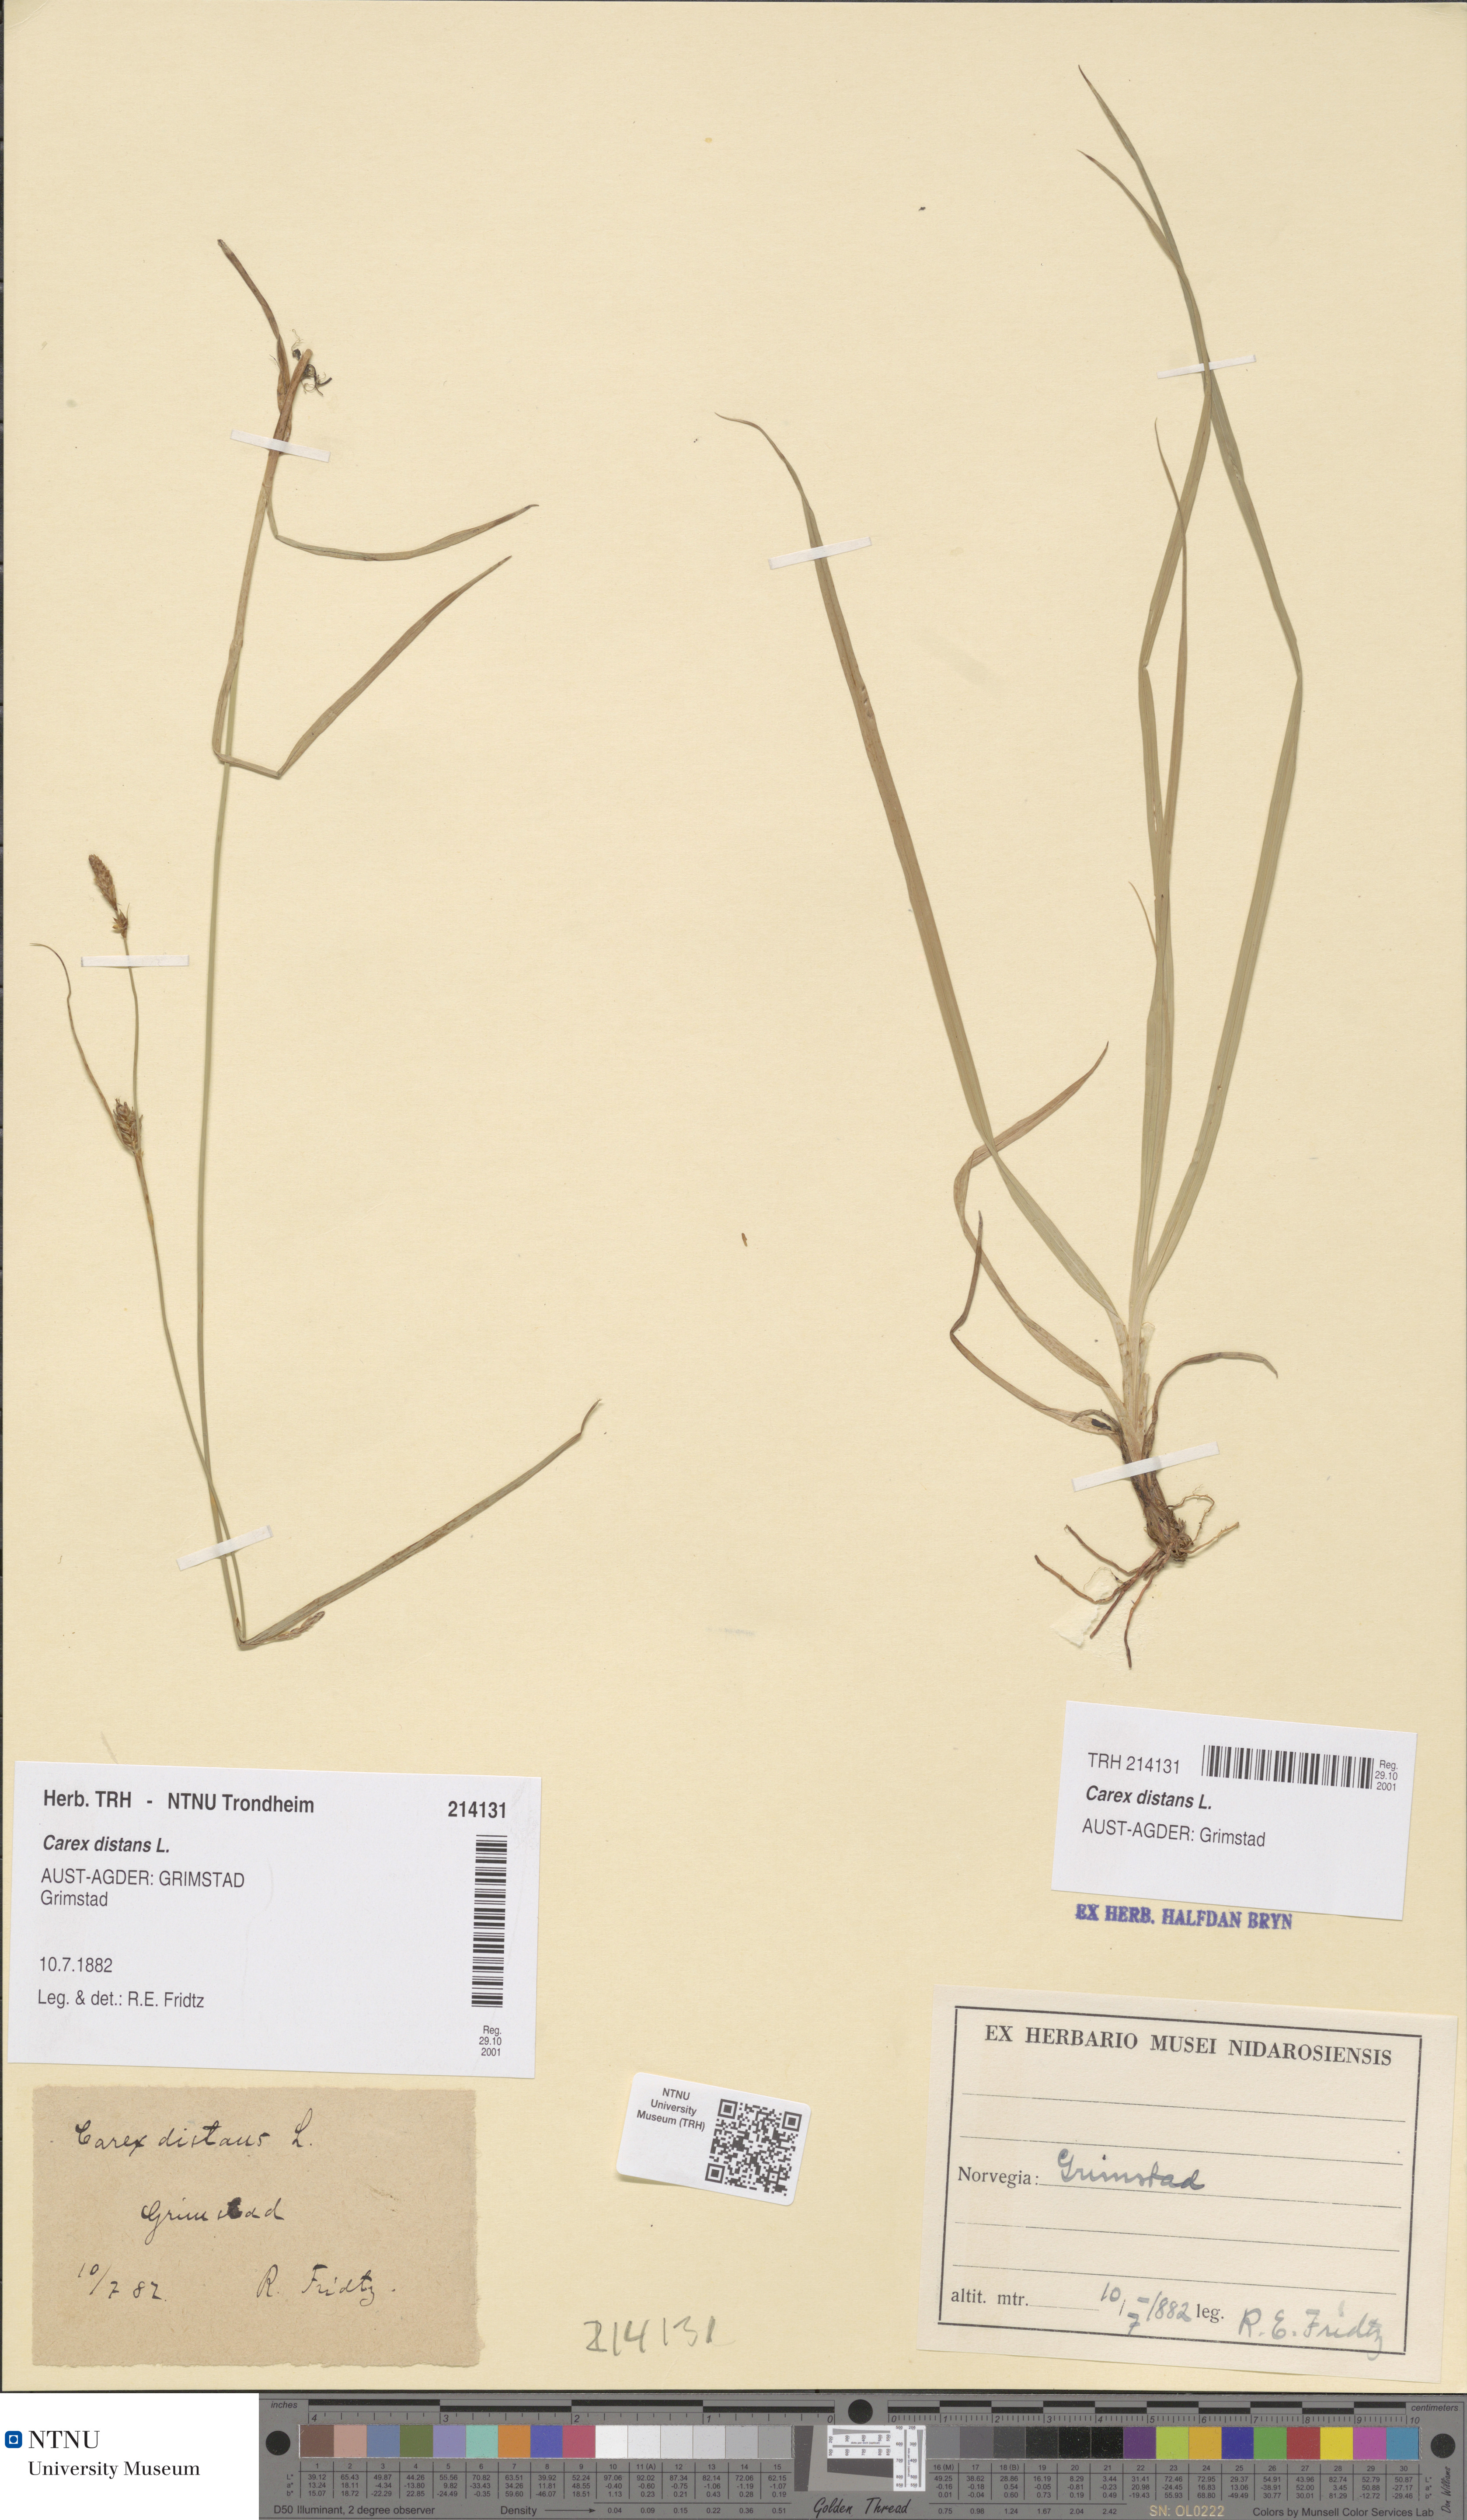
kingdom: Plantae
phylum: Tracheophyta
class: Liliopsida
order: Poales
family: Cyperaceae
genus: Carex
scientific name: Carex distans
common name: Distant sedge
